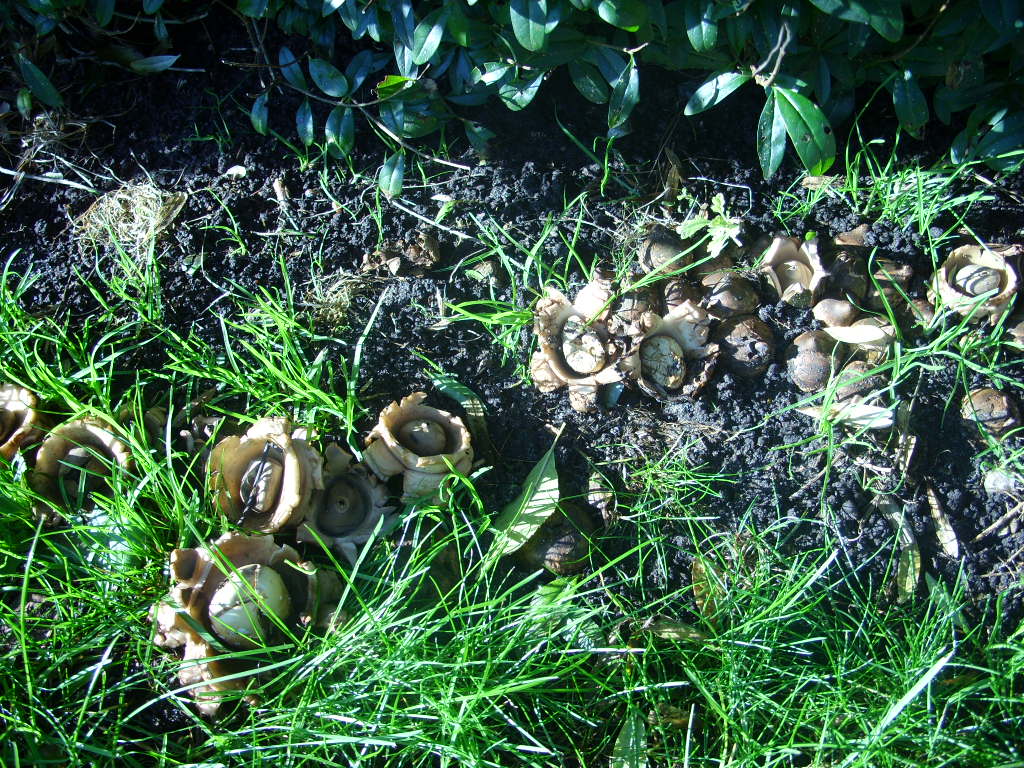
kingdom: Fungi
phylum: Basidiomycota
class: Agaricomycetes
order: Geastrales
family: Geastraceae
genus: Geastrum
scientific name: Geastrum michelianum
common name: kødet stjernebold
